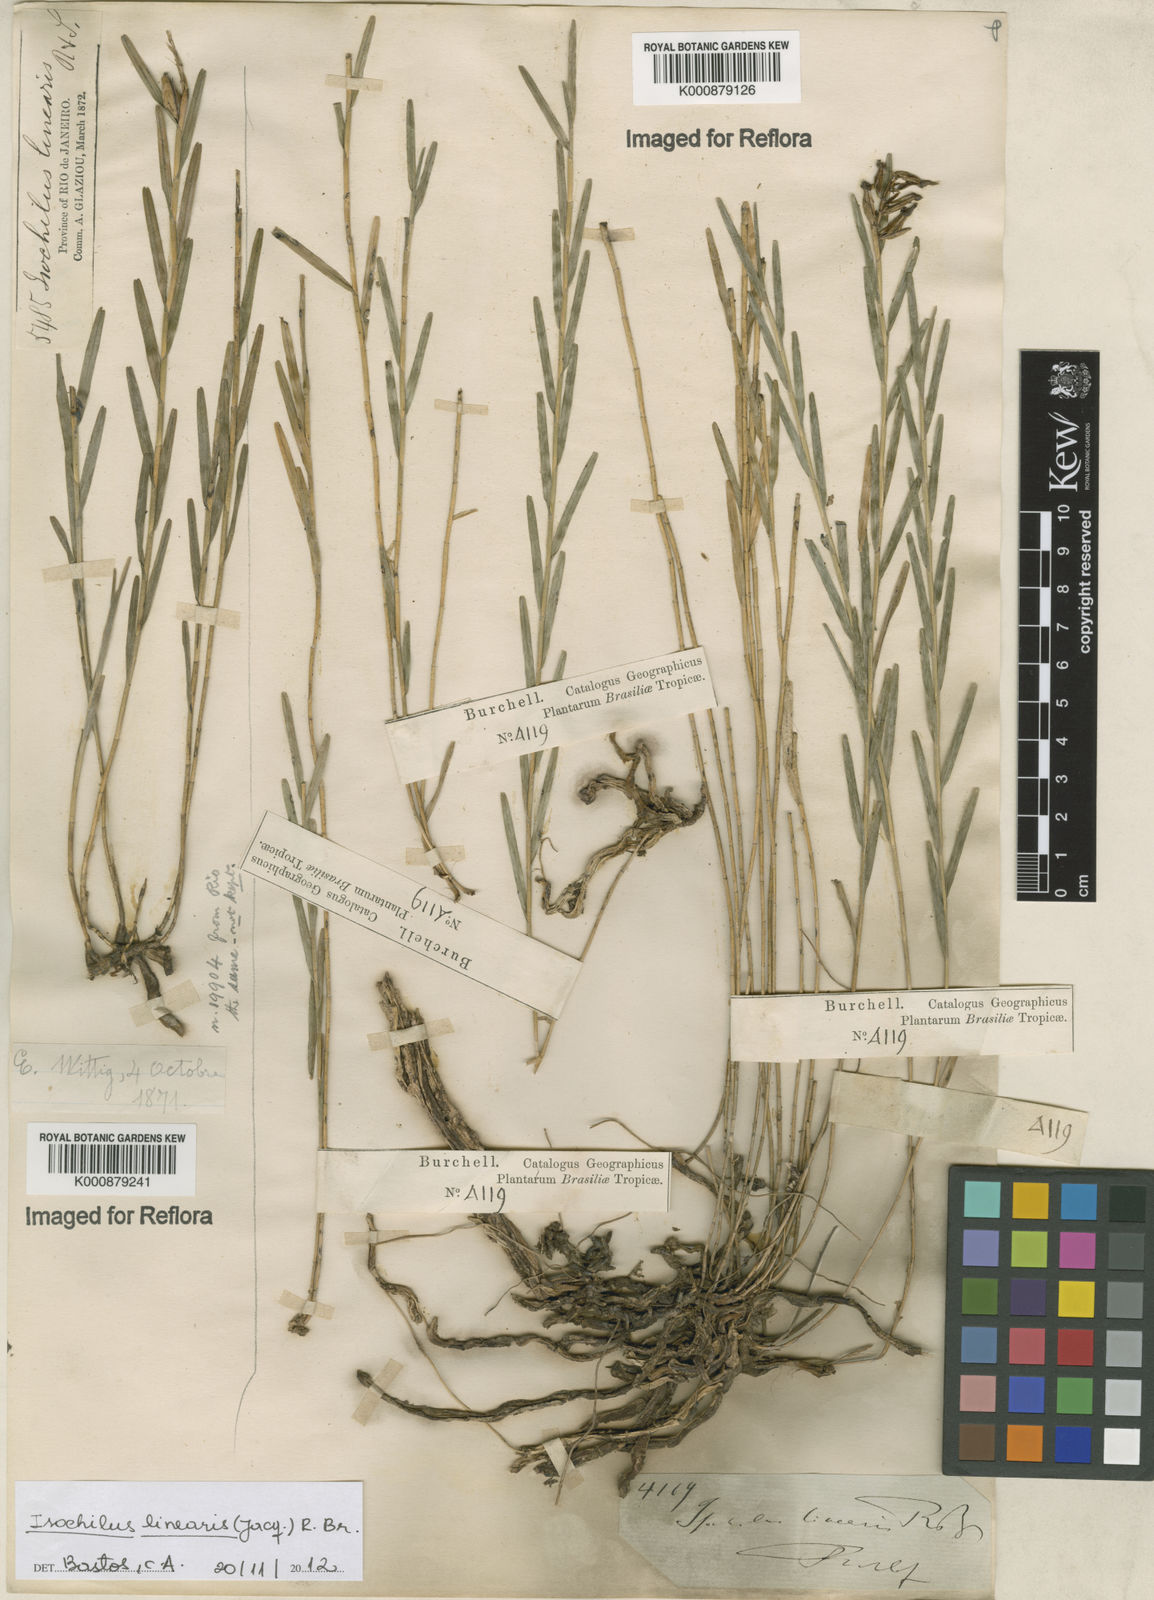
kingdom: Plantae
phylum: Tracheophyta
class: Liliopsida
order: Asparagales
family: Orchidaceae
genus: Isochilus
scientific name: Isochilus
